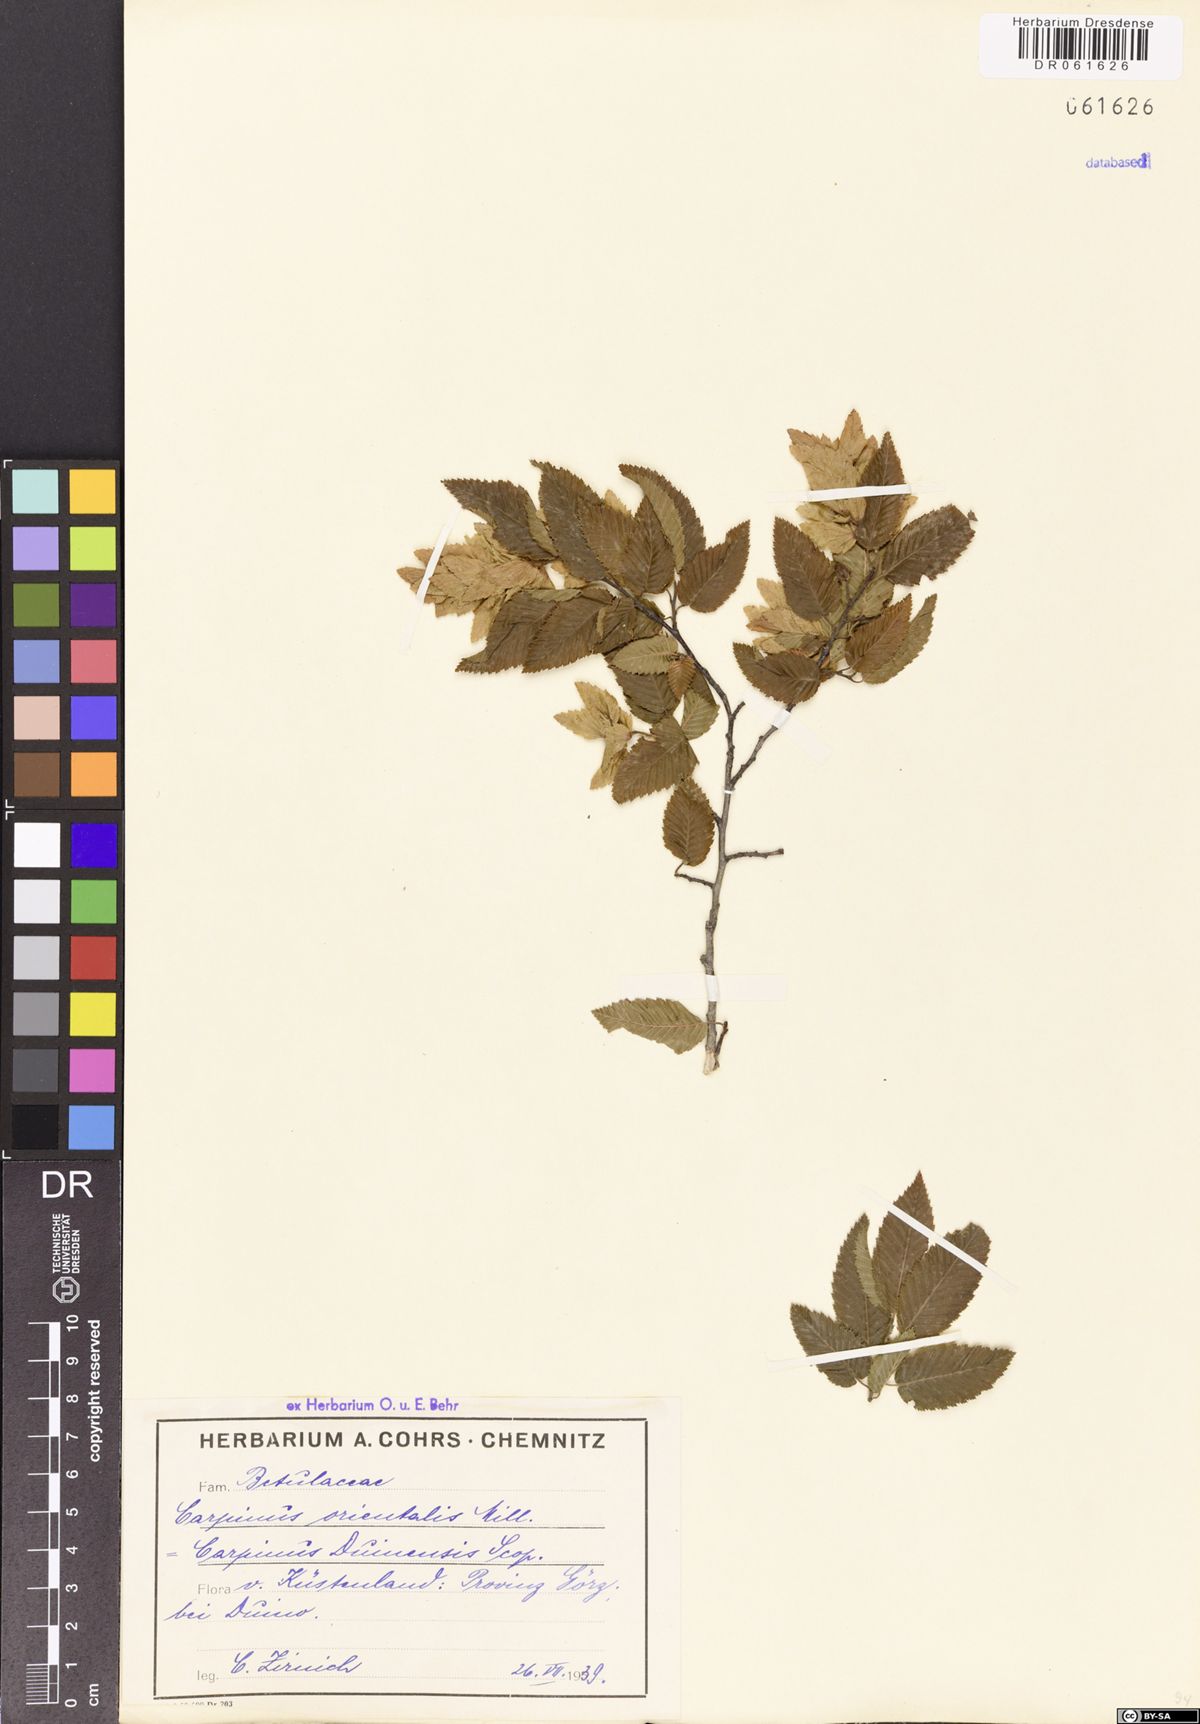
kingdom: Plantae
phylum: Tracheophyta
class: Magnoliopsida
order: Fagales
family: Betulaceae
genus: Carpinus
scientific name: Carpinus orientalis
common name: Eastern hornbeam
